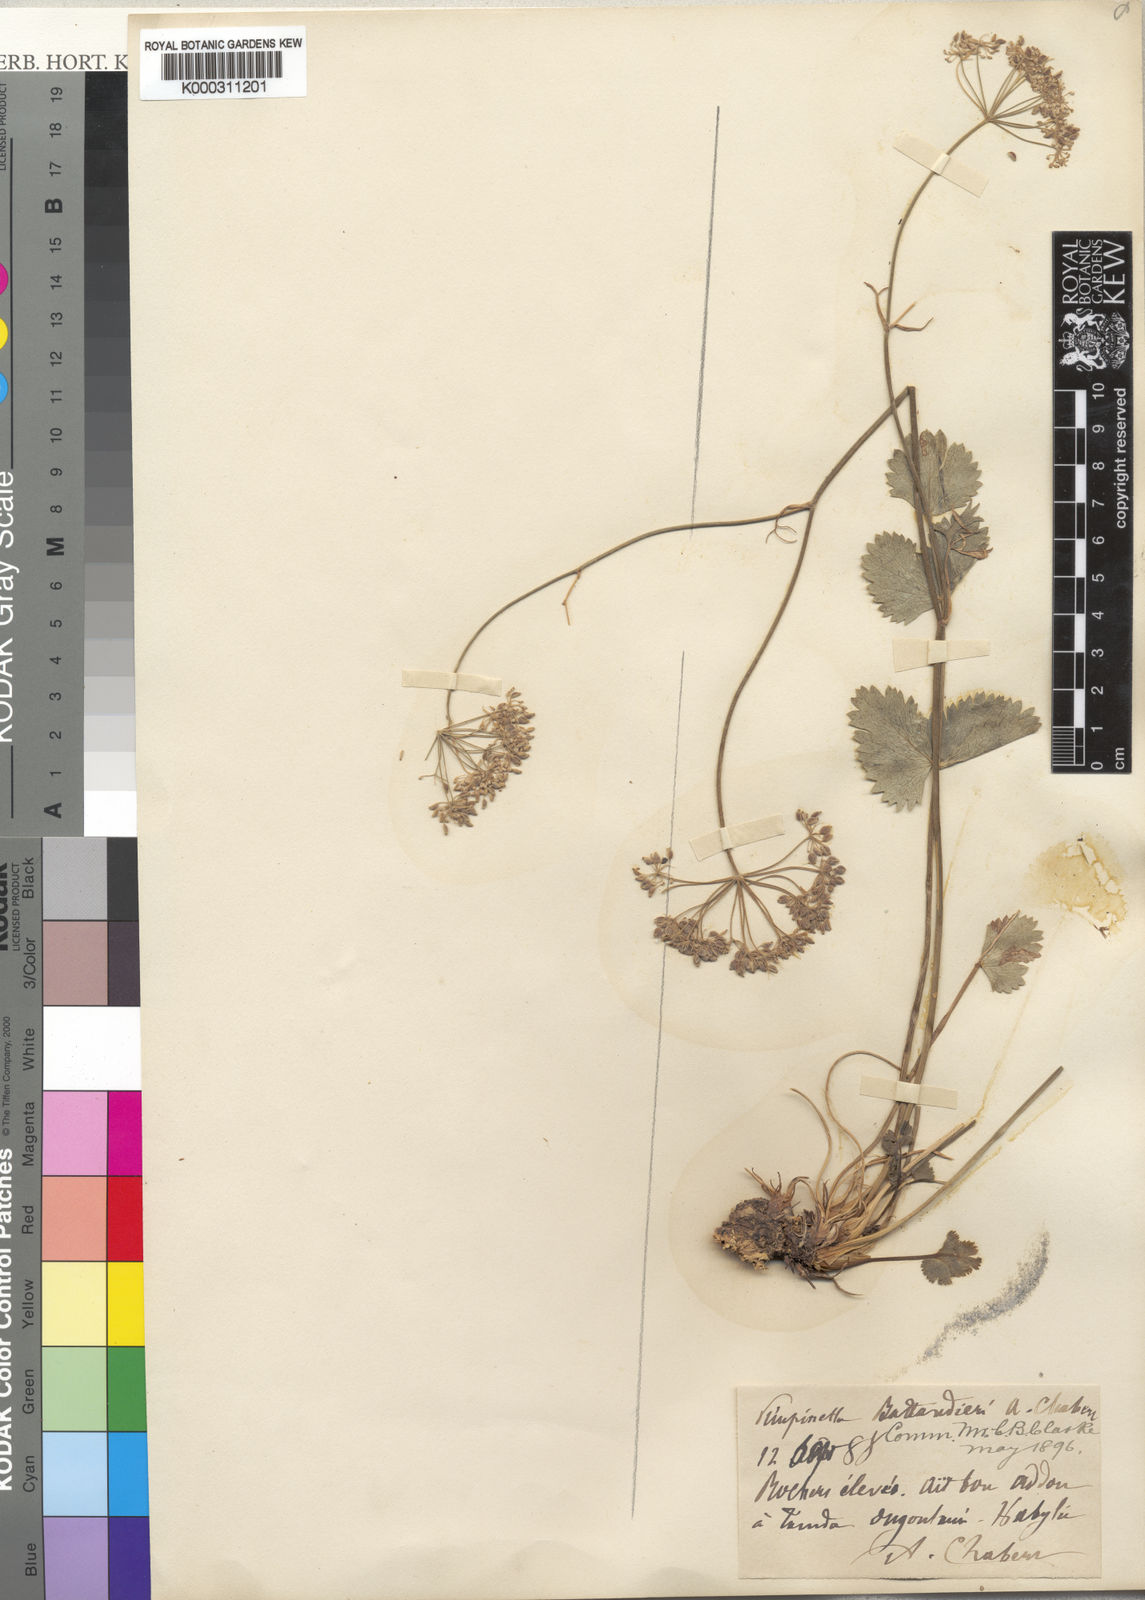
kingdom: Plantae
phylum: Tracheophyta
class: Magnoliopsida
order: Apiales
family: Apiaceae
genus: Pimpinella
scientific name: Pimpinella battandieri
